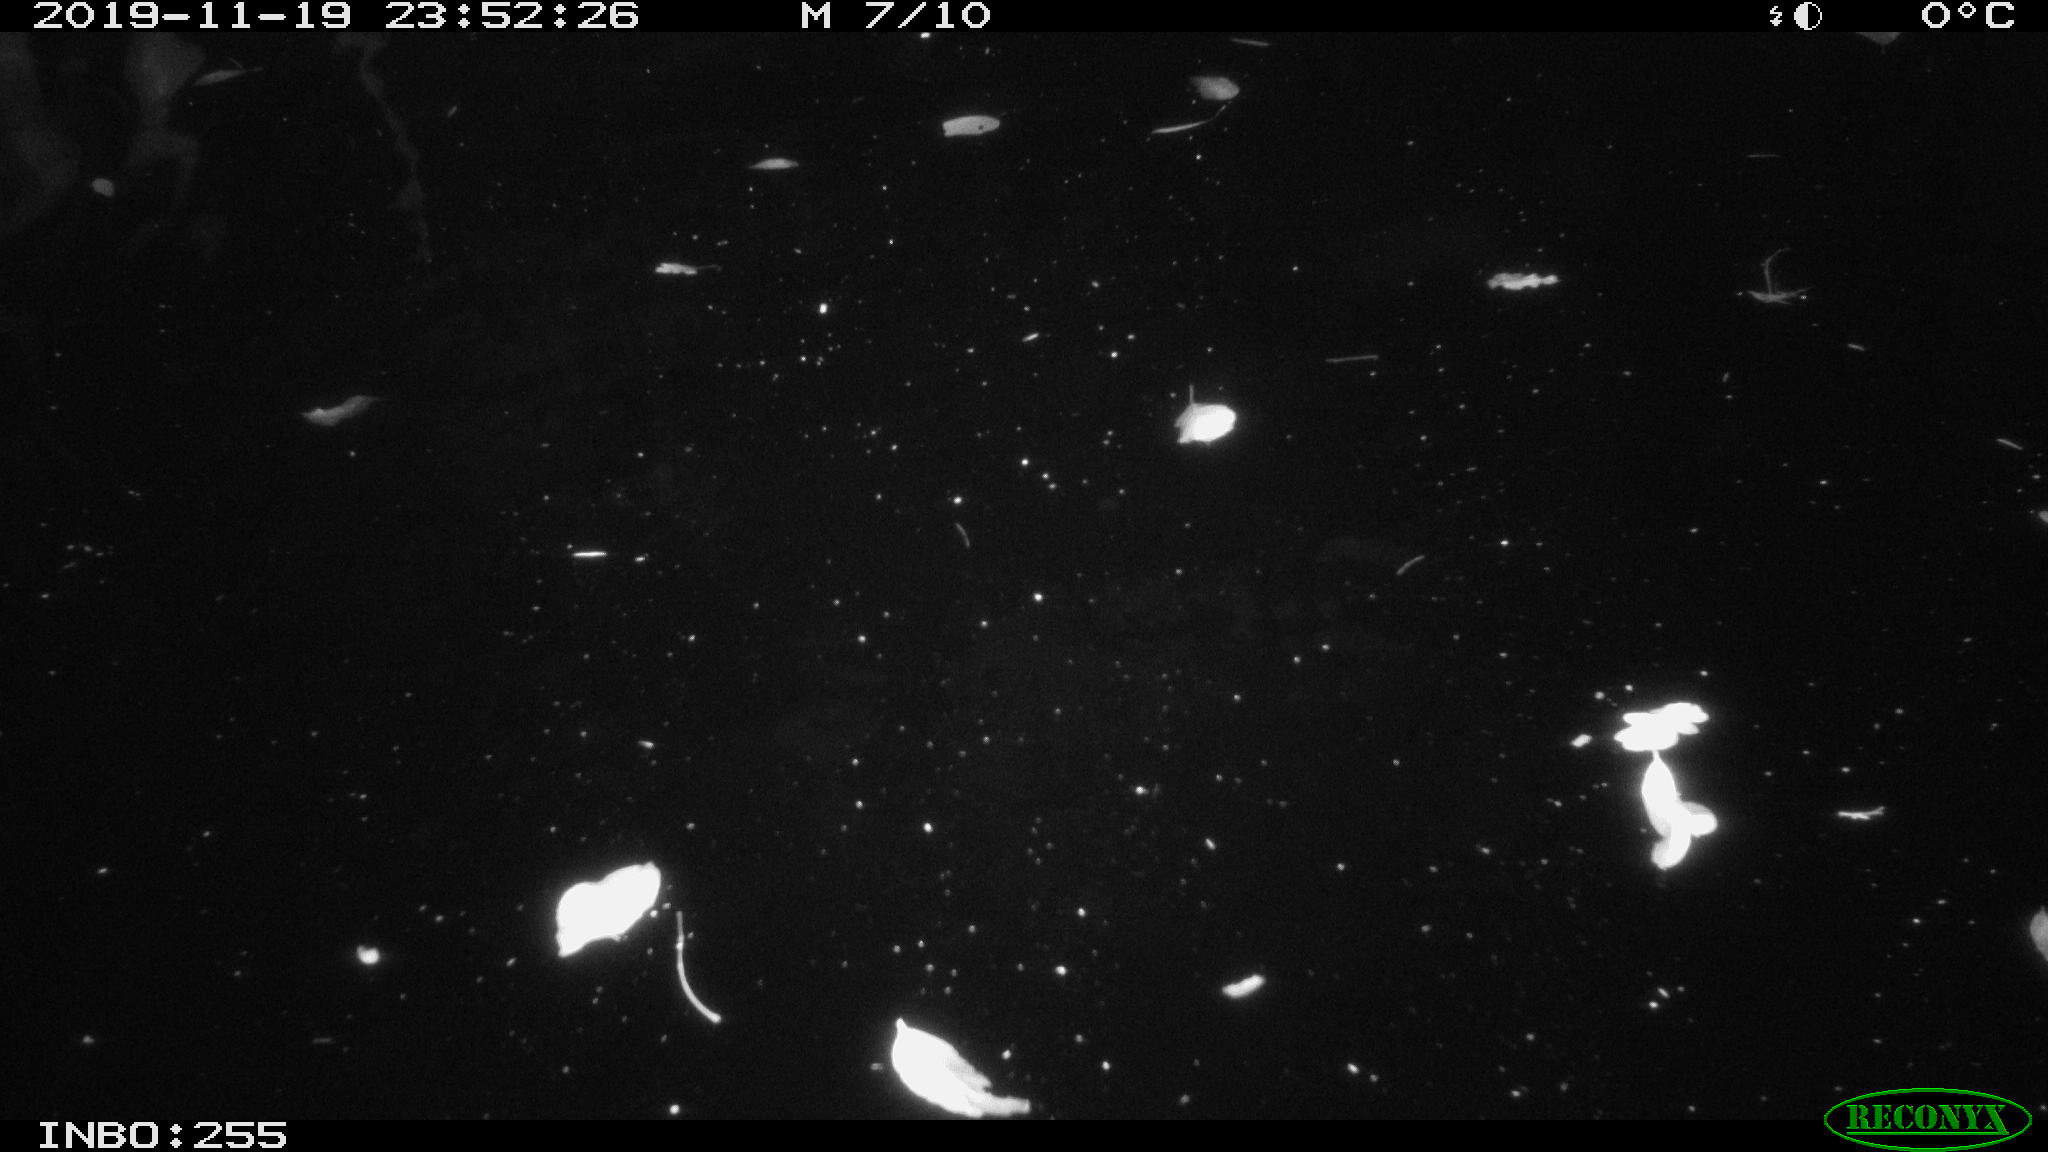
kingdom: Animalia
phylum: Chordata
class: Mammalia
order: Rodentia
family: Cricetidae
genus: Ondatra
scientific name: Ondatra zibethicus
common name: Muskrat
